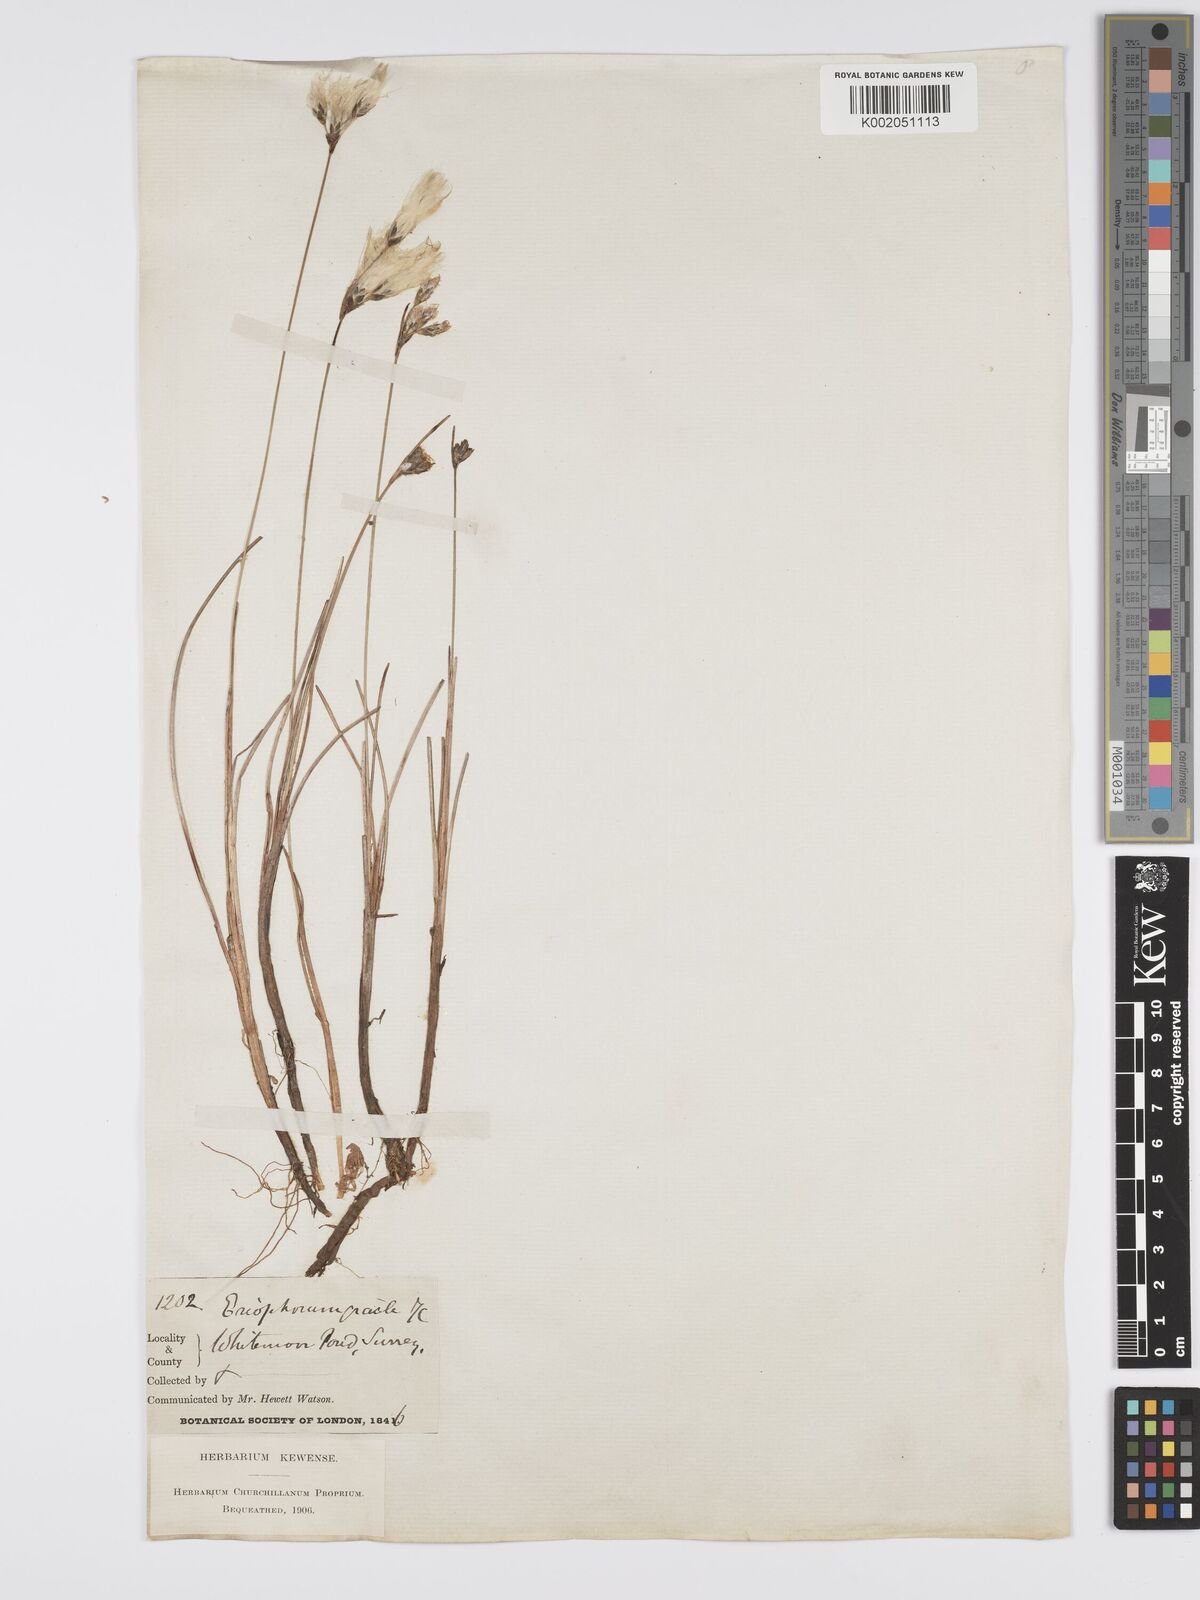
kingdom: Plantae
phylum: Tracheophyta
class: Liliopsida
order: Poales
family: Cyperaceae
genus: Eriophorum
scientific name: Eriophorum gracile
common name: Slender cottongrass
